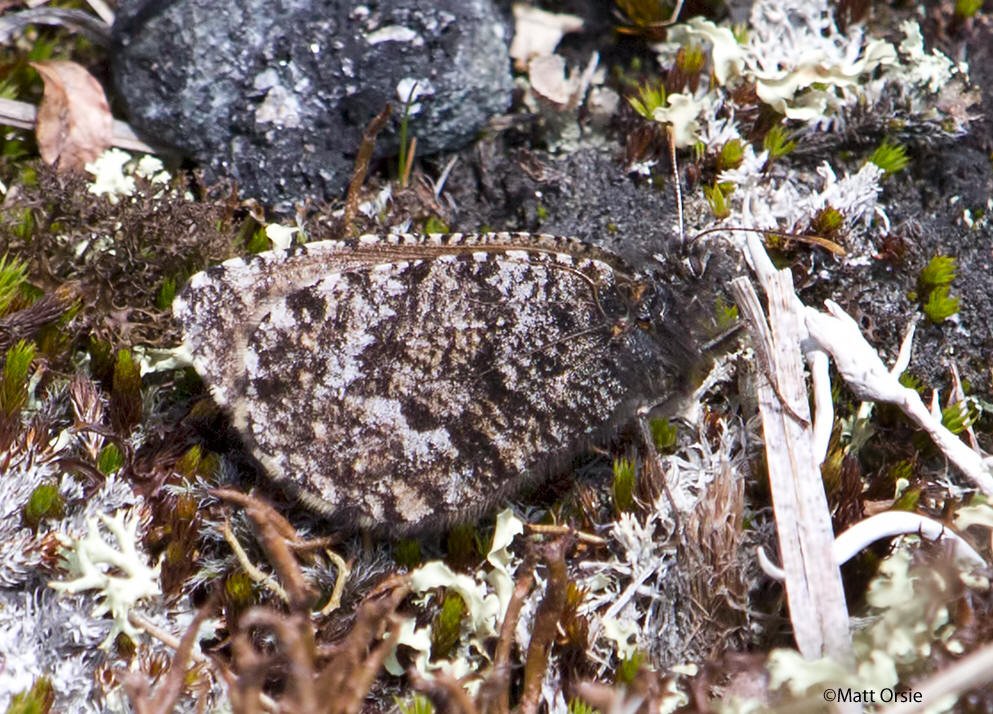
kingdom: Animalia
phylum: Arthropoda
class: Insecta
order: Lepidoptera
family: Nymphalidae
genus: Oeneis
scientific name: Oeneis melissa
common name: Melissa Arctic
